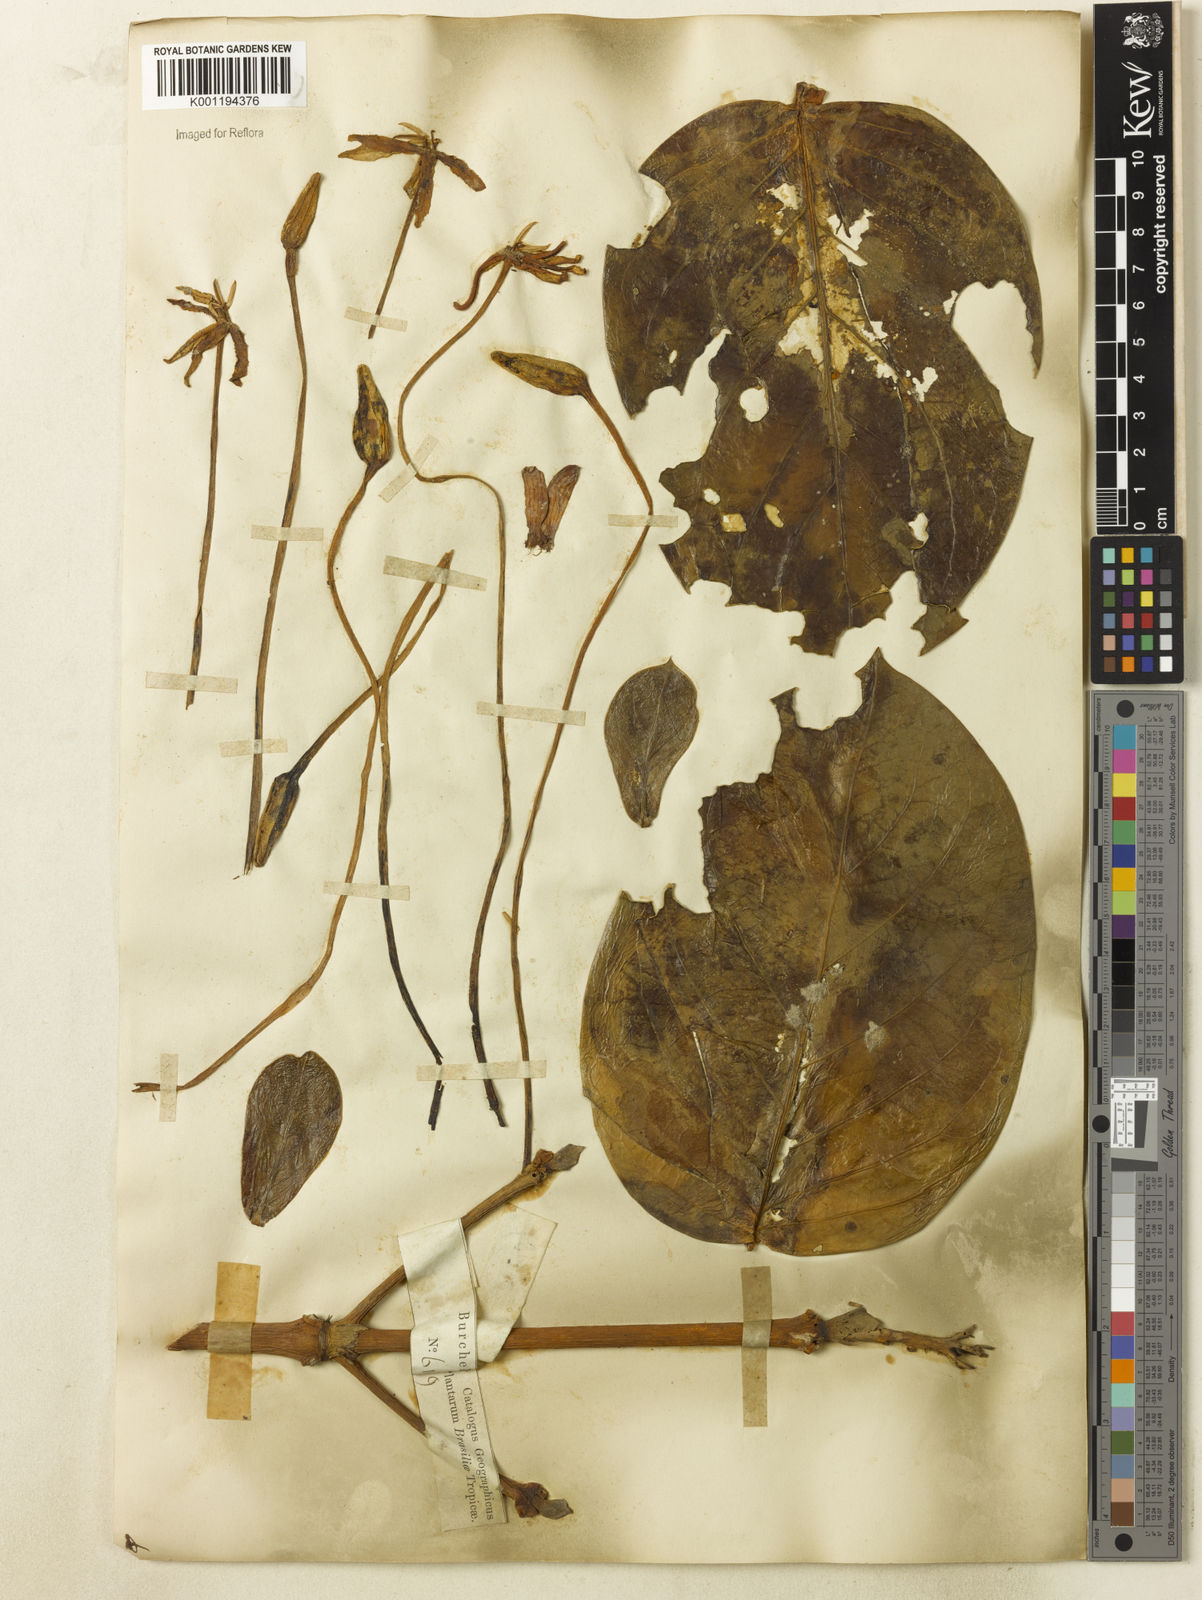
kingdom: Plantae
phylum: Tracheophyta
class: Magnoliopsida
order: Gentianales
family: Rubiaceae
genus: Posoqueria
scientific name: Posoqueria
